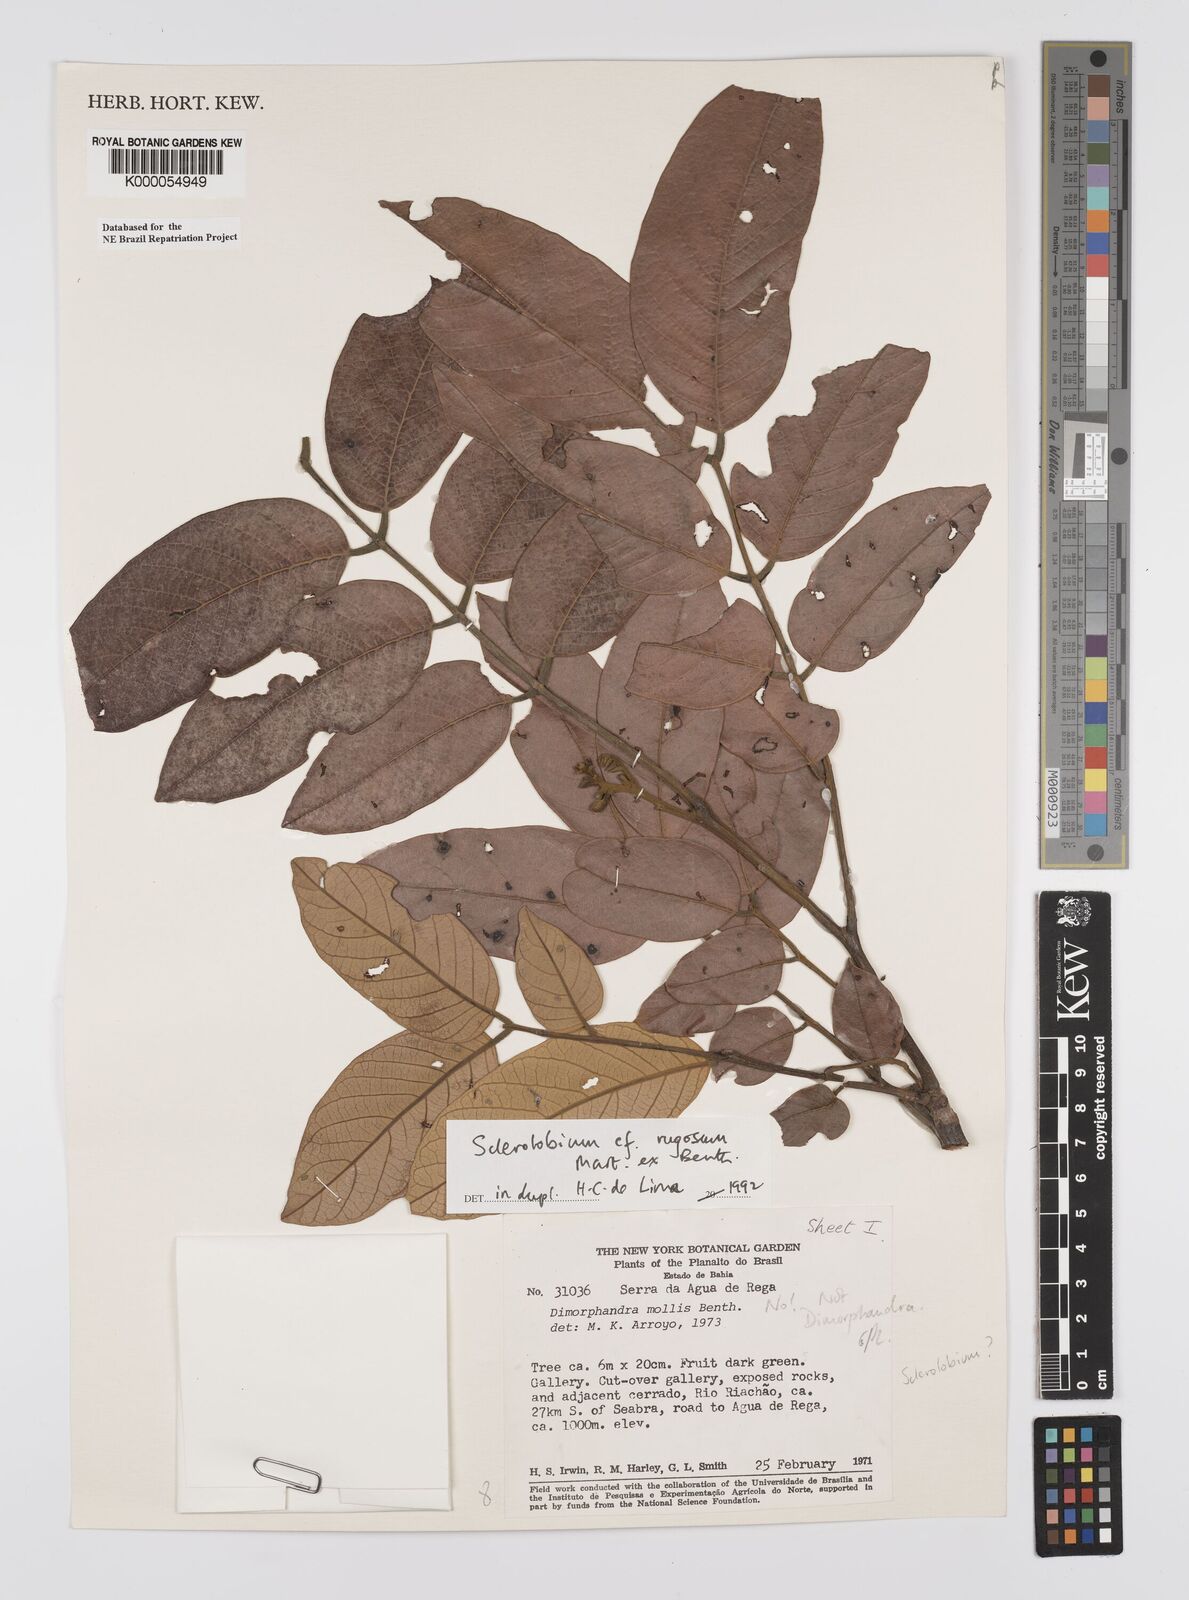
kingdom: Plantae
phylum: Tracheophyta
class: Magnoliopsida
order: Fabales
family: Fabaceae
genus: Tachigali
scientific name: Tachigali
